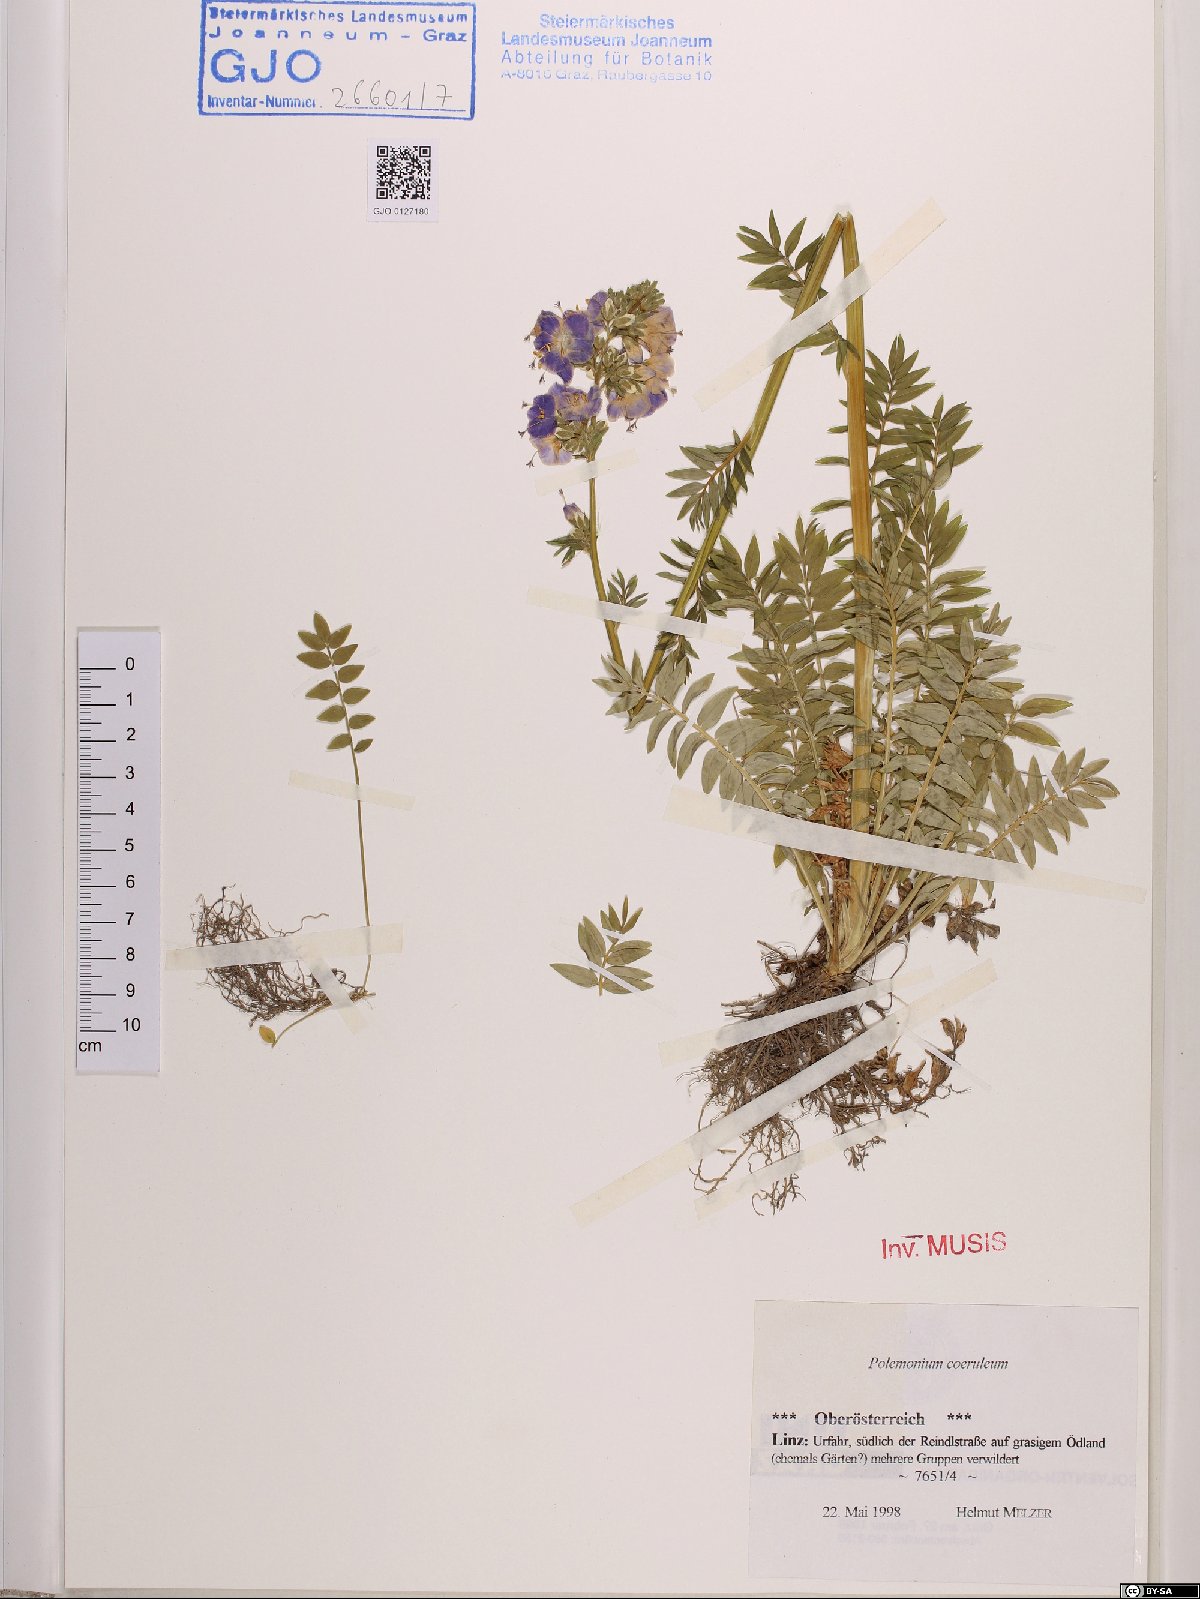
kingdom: Plantae
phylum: Tracheophyta
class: Magnoliopsida
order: Ericales
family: Polemoniaceae
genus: Polemonium
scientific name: Polemonium caeruleum
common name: Jacob's-ladder
